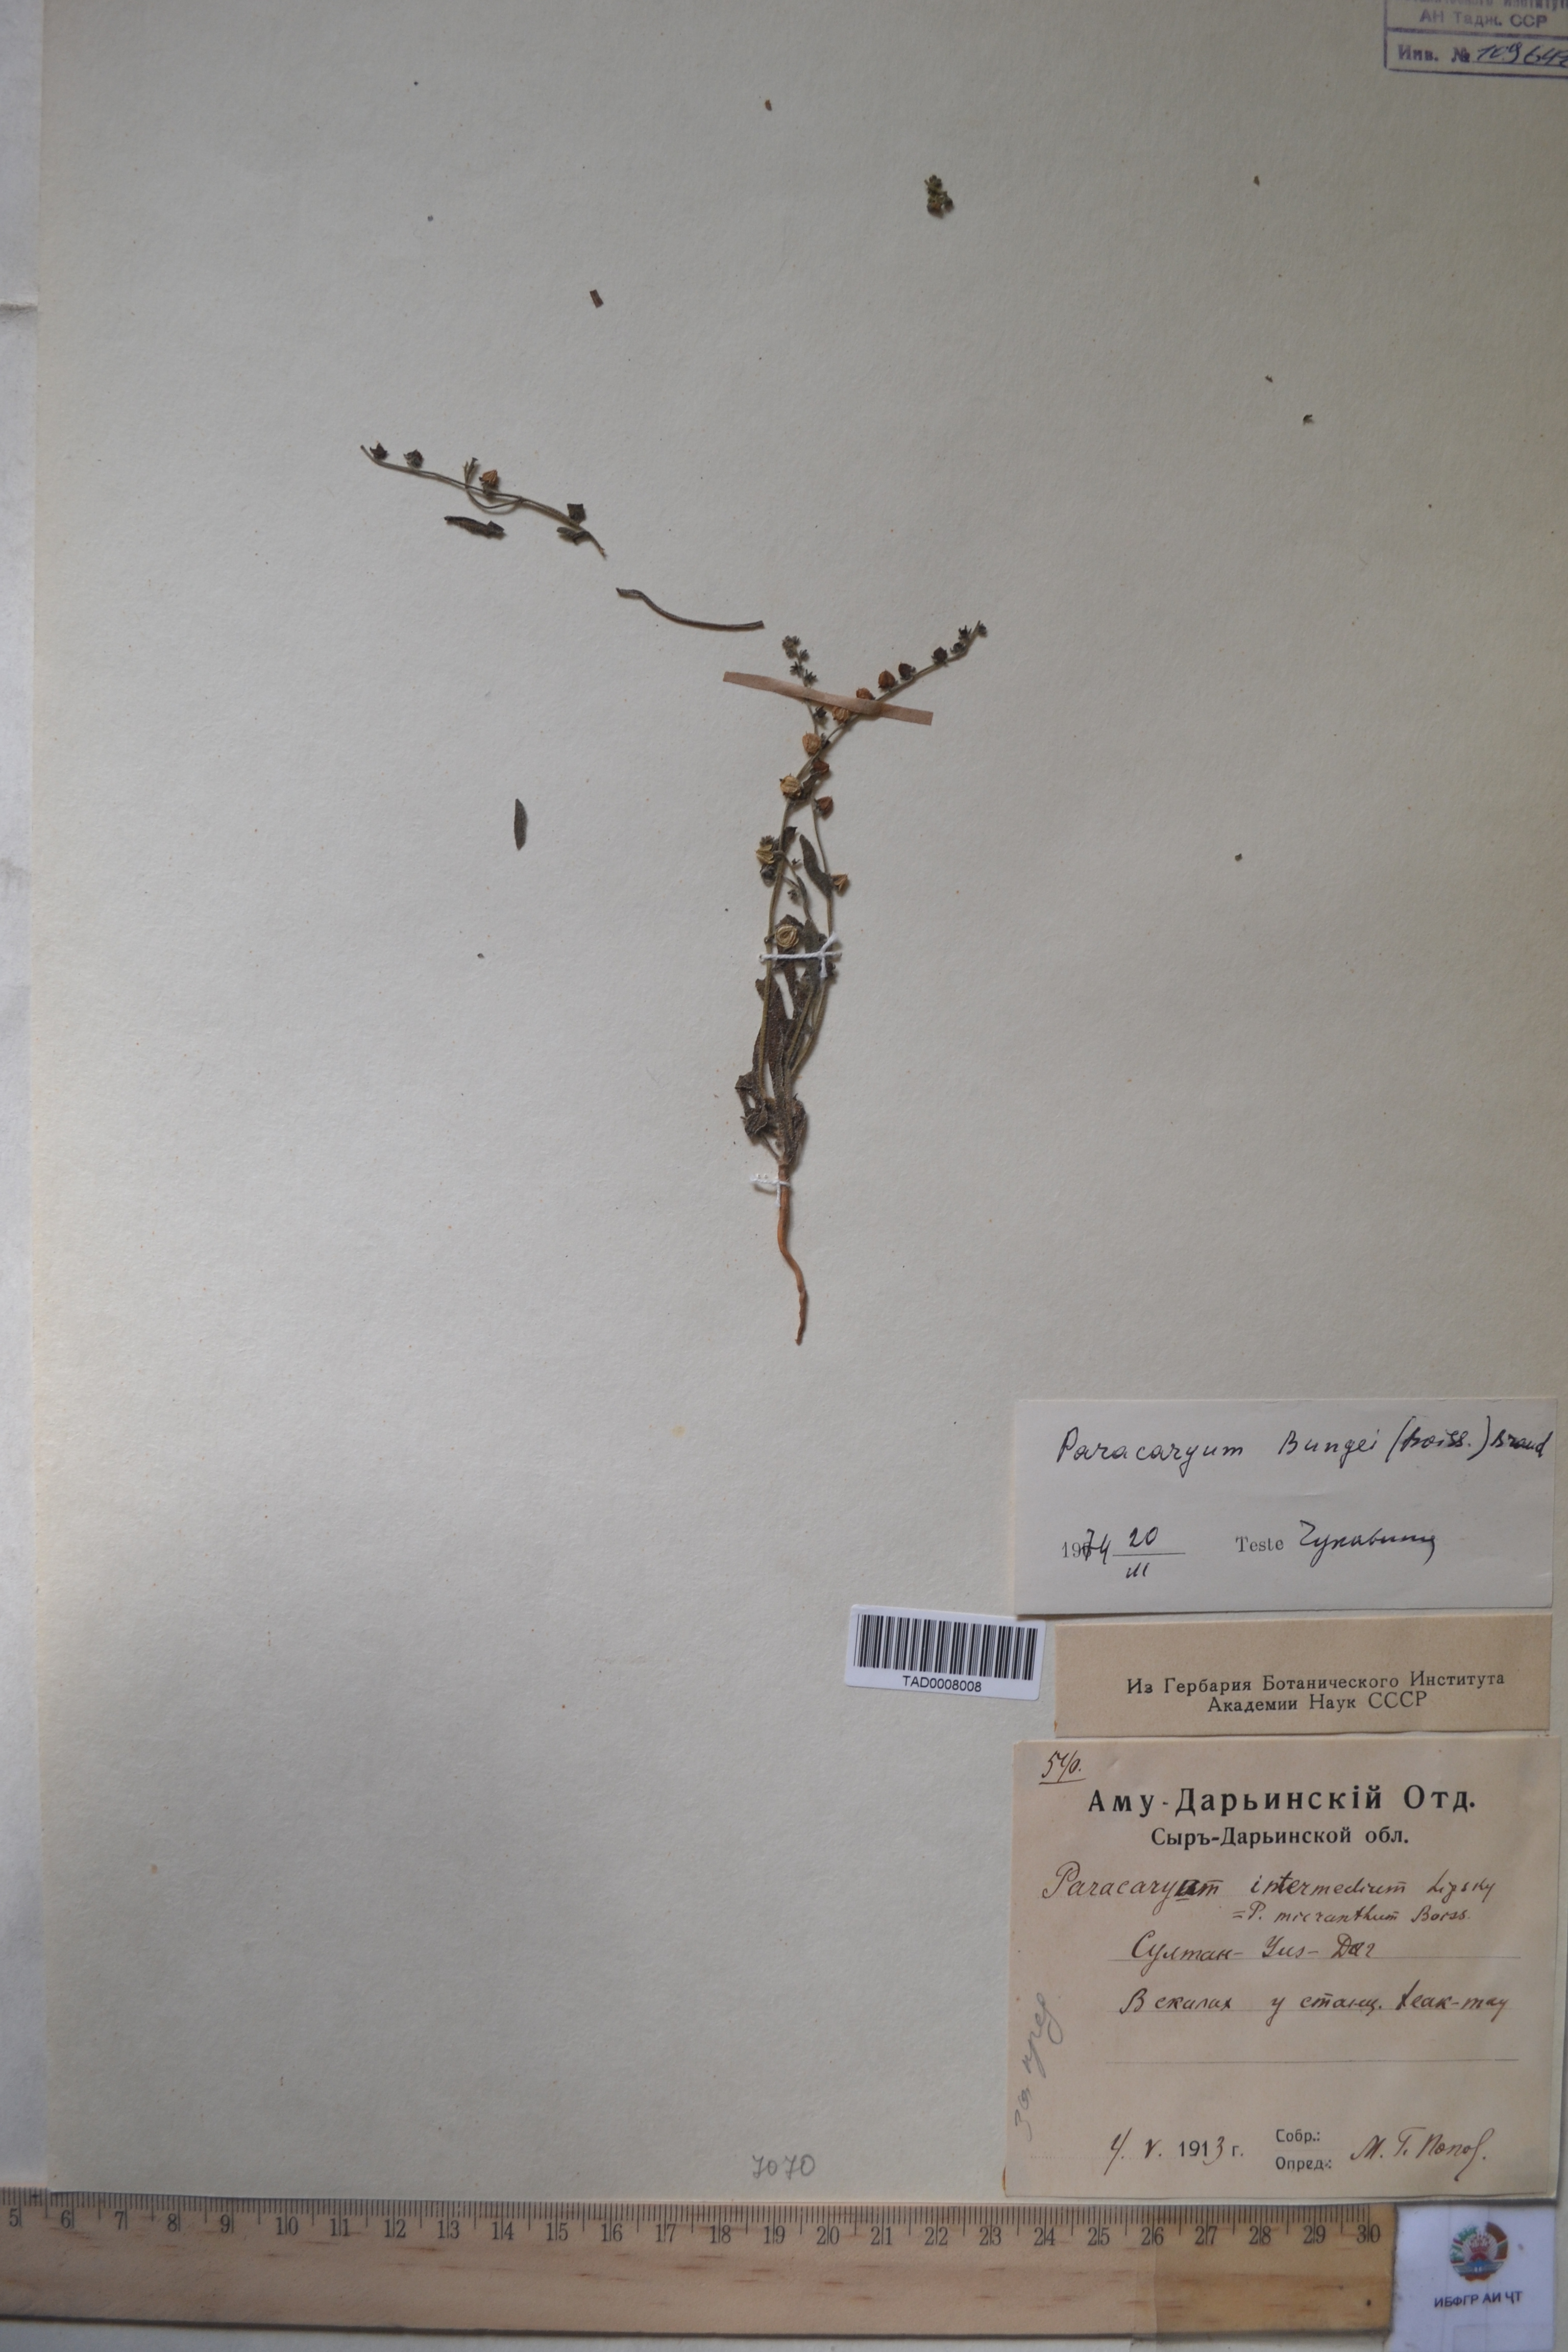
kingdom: Plantae
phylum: Tracheophyta
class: Magnoliopsida
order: Boraginales
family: Boraginaceae
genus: Paracaryum
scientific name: Paracaryum
